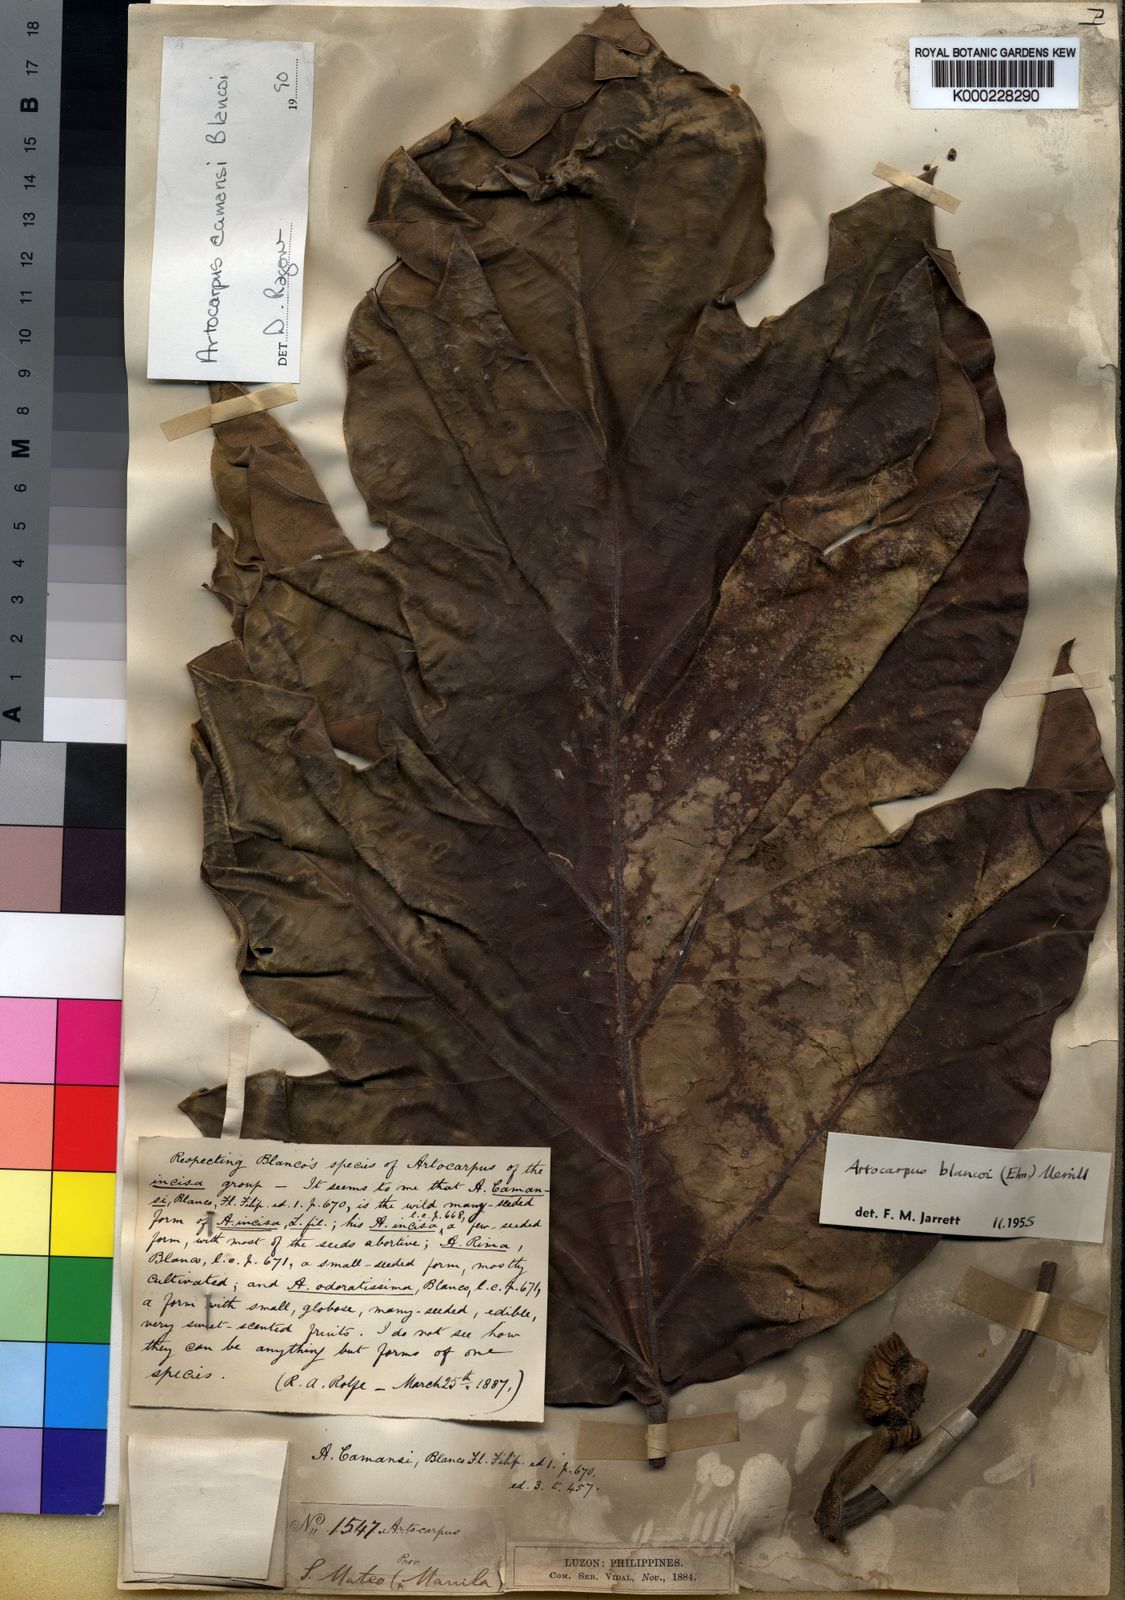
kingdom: Plantae
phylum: Tracheophyta
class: Magnoliopsida
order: Rosales
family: Moraceae
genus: Artocarpus
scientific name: Artocarpus altilis
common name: Breadfruit
